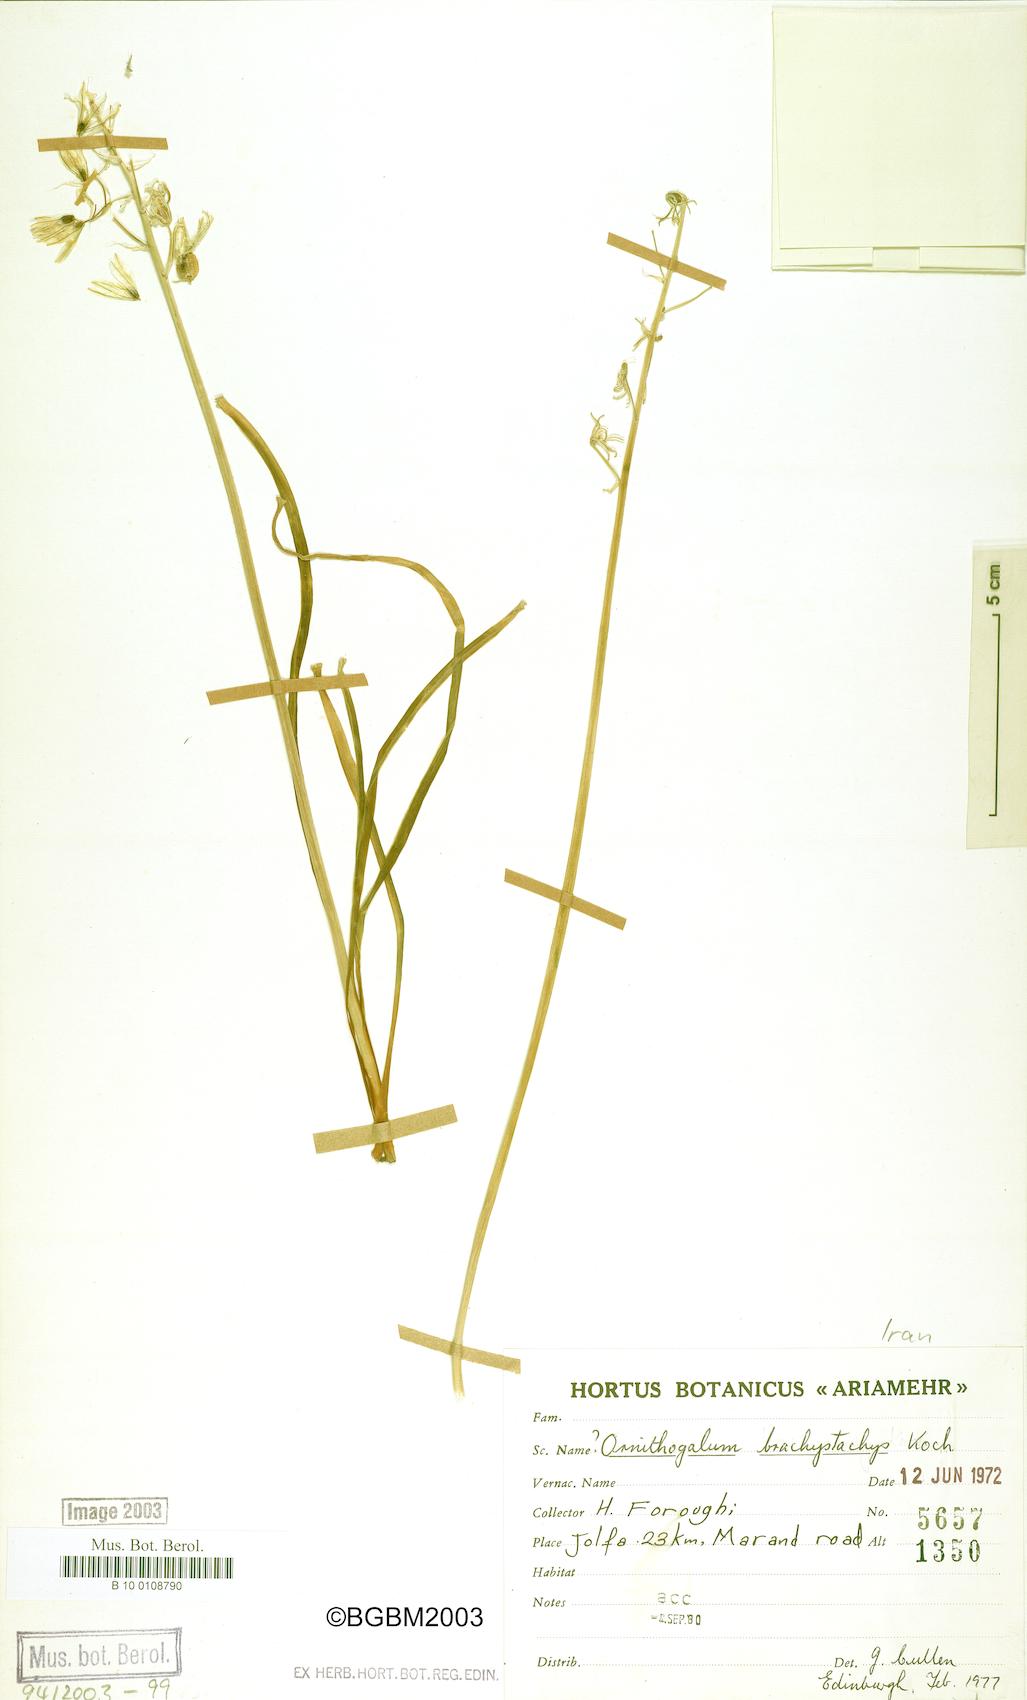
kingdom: Plantae
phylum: Tracheophyta
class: Liliopsida
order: Asparagales
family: Asparagaceae
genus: Ornithogalum
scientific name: Ornithogalum narbonense
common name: Bath-asparagus
